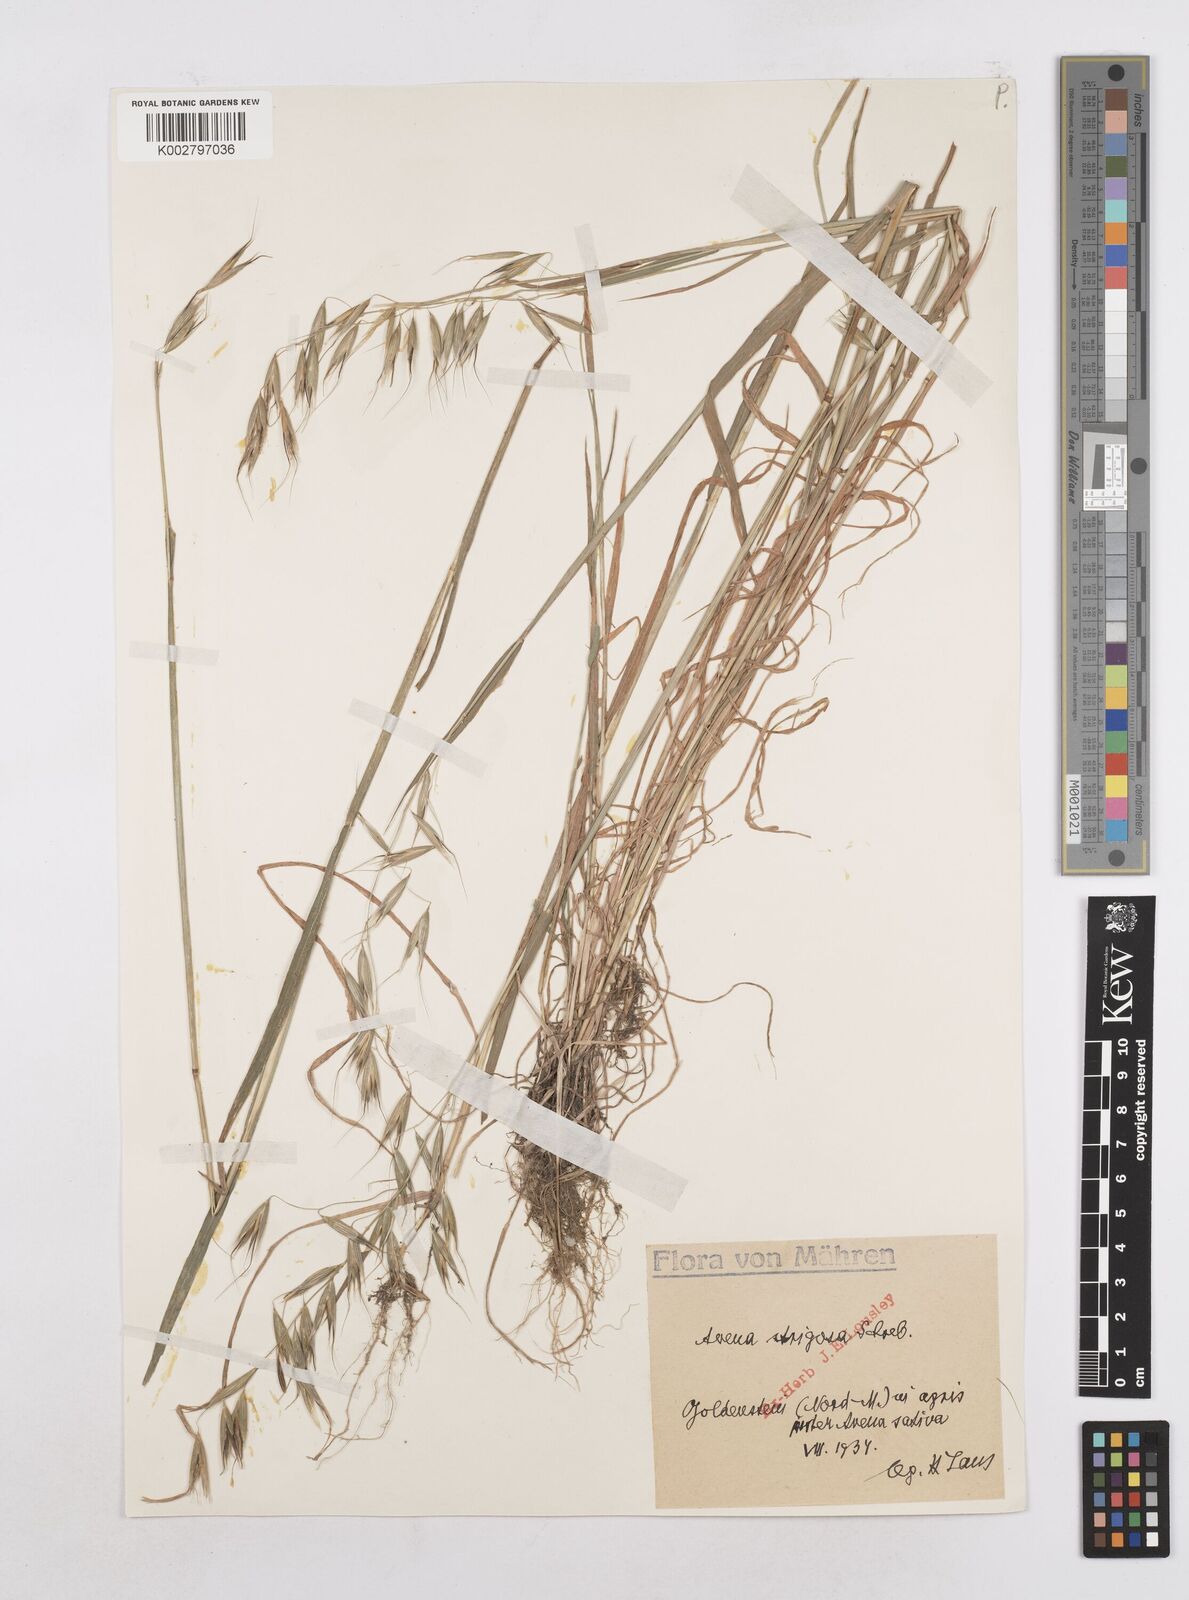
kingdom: Plantae
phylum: Tracheophyta
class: Liliopsida
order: Poales
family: Poaceae
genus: Avena
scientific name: Avena strigosa
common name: Bristle oat
